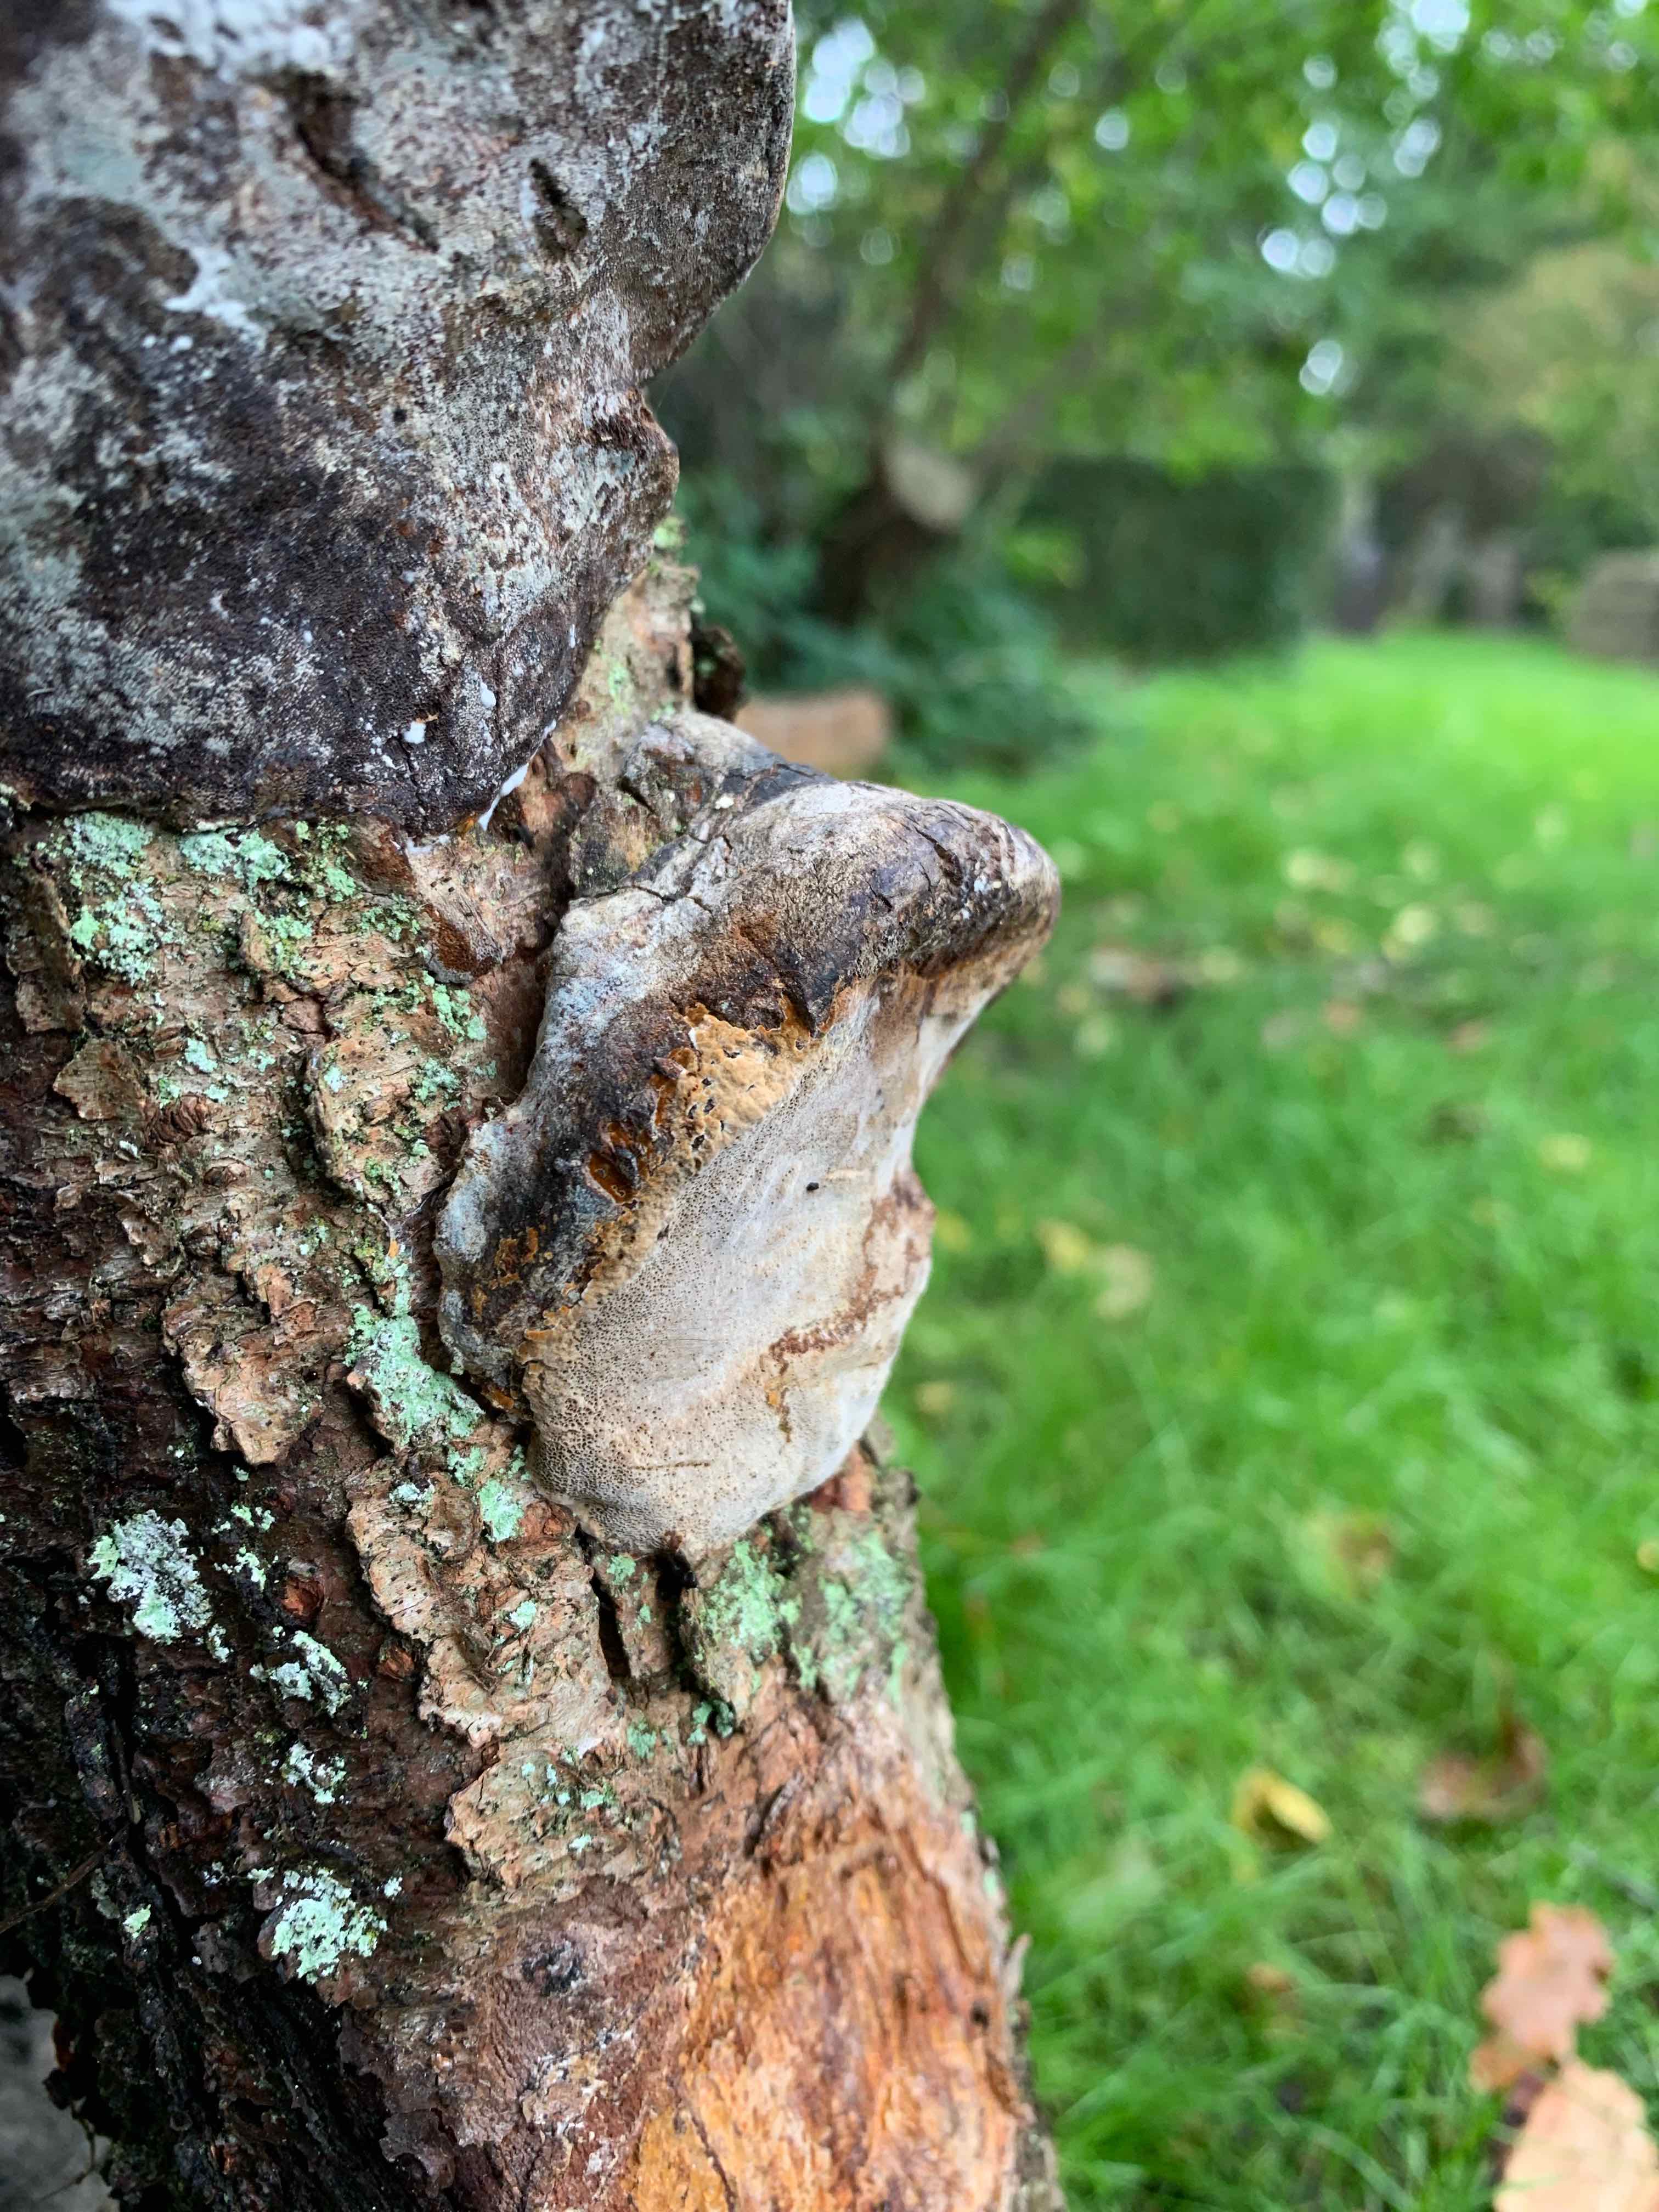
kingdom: Fungi
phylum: Basidiomycota
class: Agaricomycetes
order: Hymenochaetales
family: Hymenochaetaceae
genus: Phellinus
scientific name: Phellinus pomaceus
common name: blomme-ildporesvamp
